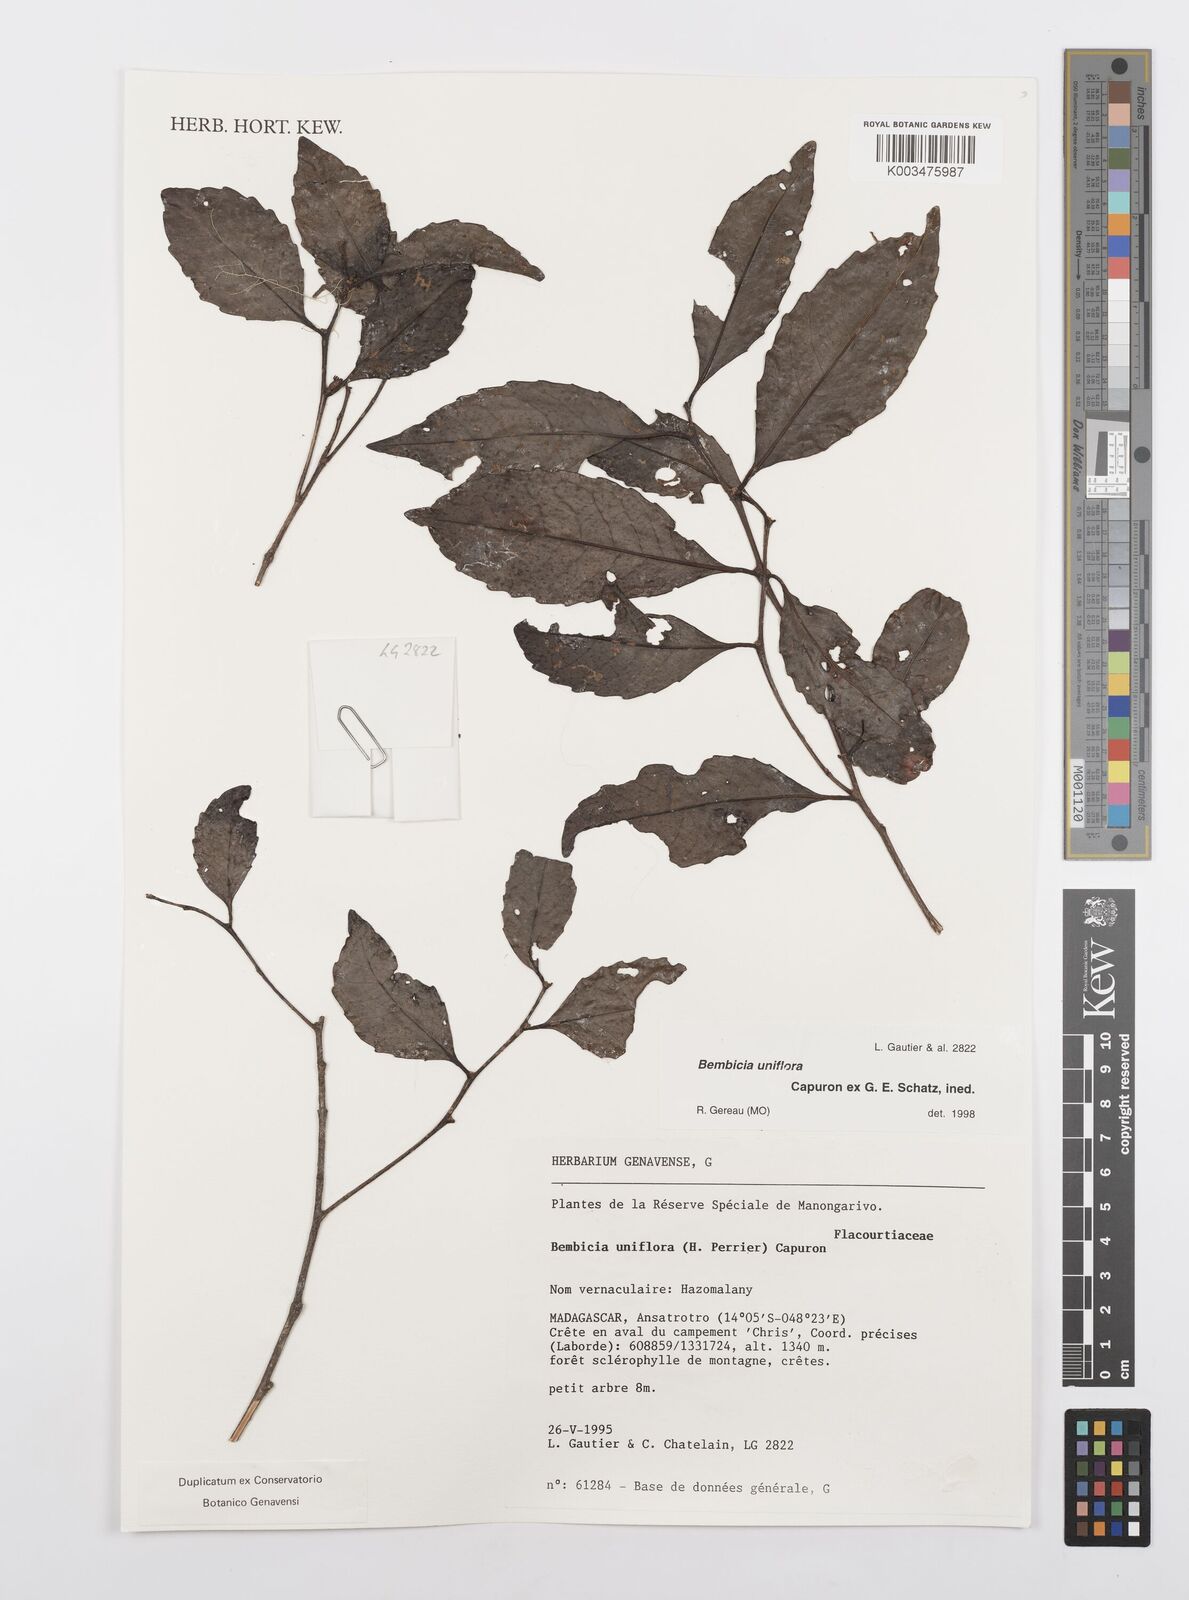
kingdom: Plantae
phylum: Tracheophyta
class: Magnoliopsida
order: Malpighiales
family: Salicaceae
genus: Bembicia
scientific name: Bembicia
